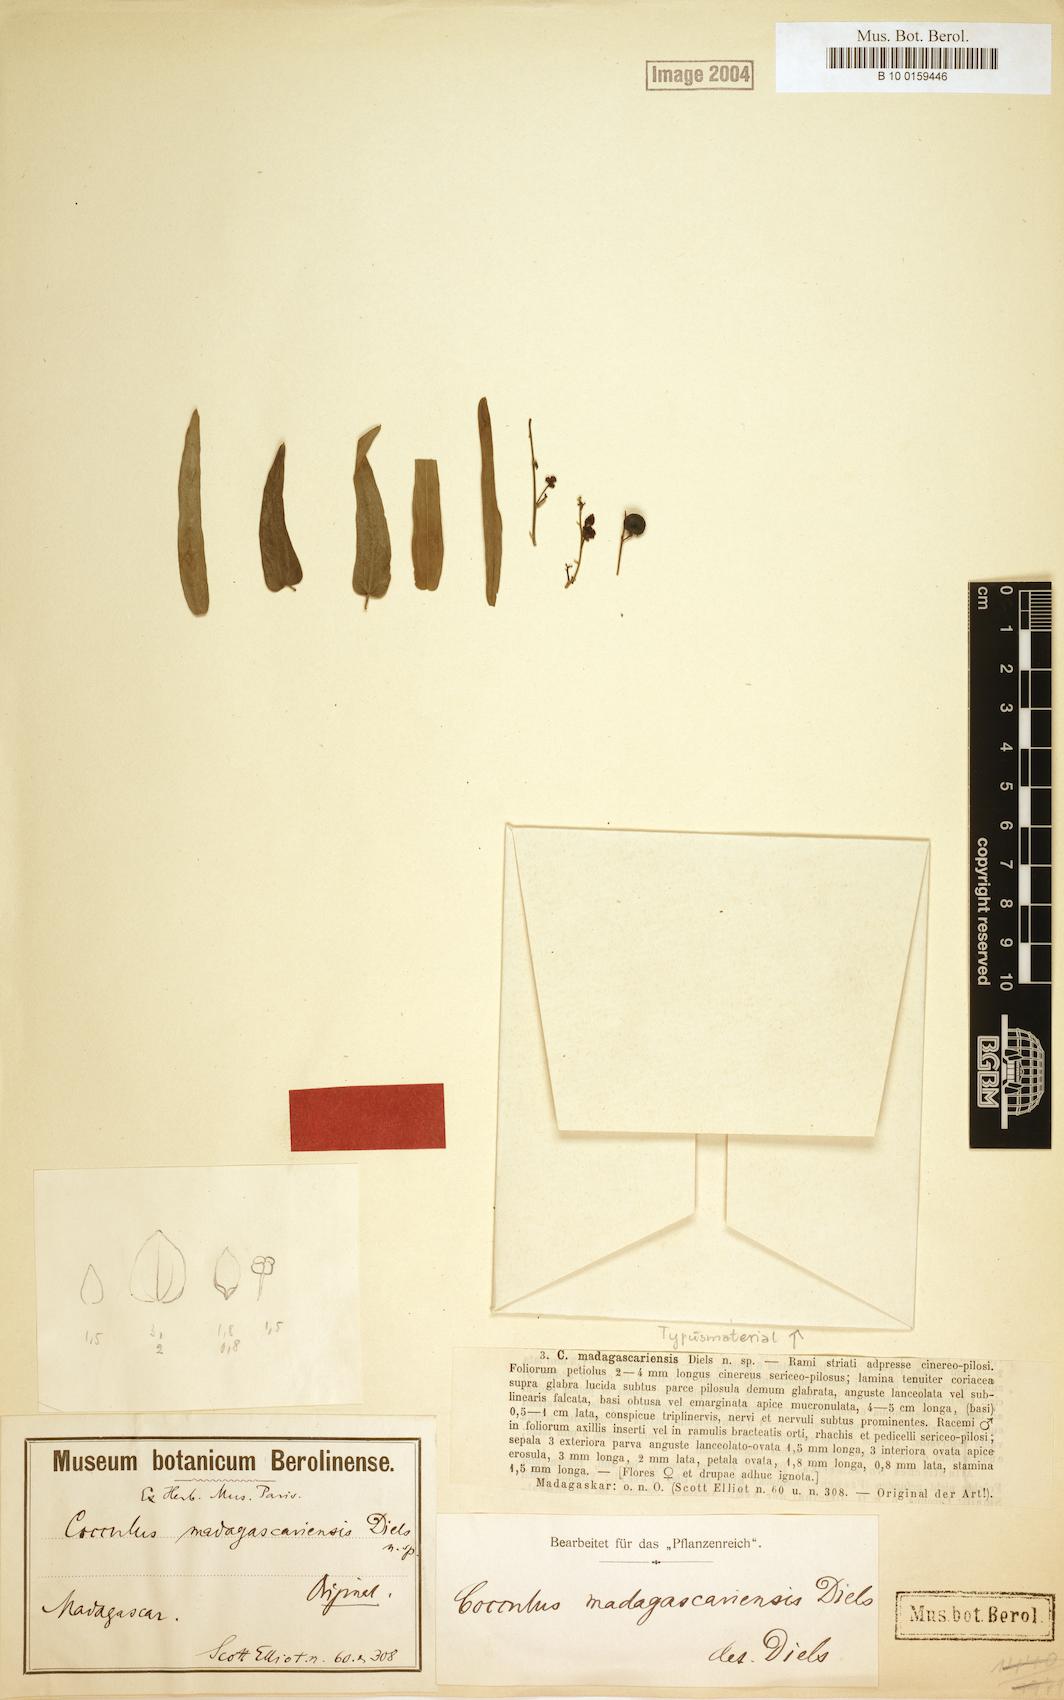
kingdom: Plantae
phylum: Tracheophyta
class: Magnoliopsida
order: Ranunculales
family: Menispermaceae
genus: Cocculus
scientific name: Cocculus madagascariensis
